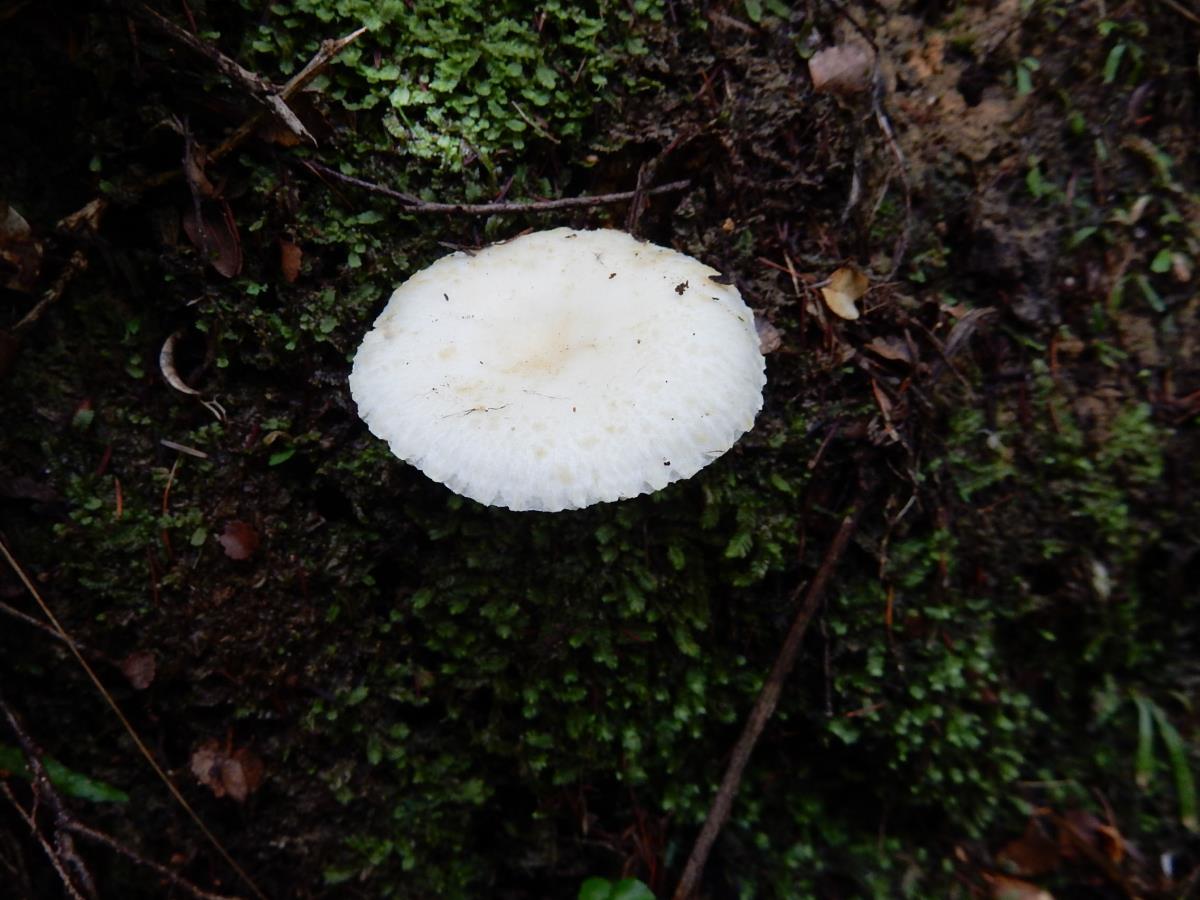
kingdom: Fungi
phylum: Basidiomycota
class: Agaricomycetes
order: Russulales
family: Russulaceae
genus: Russula
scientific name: Russula albolutescens
